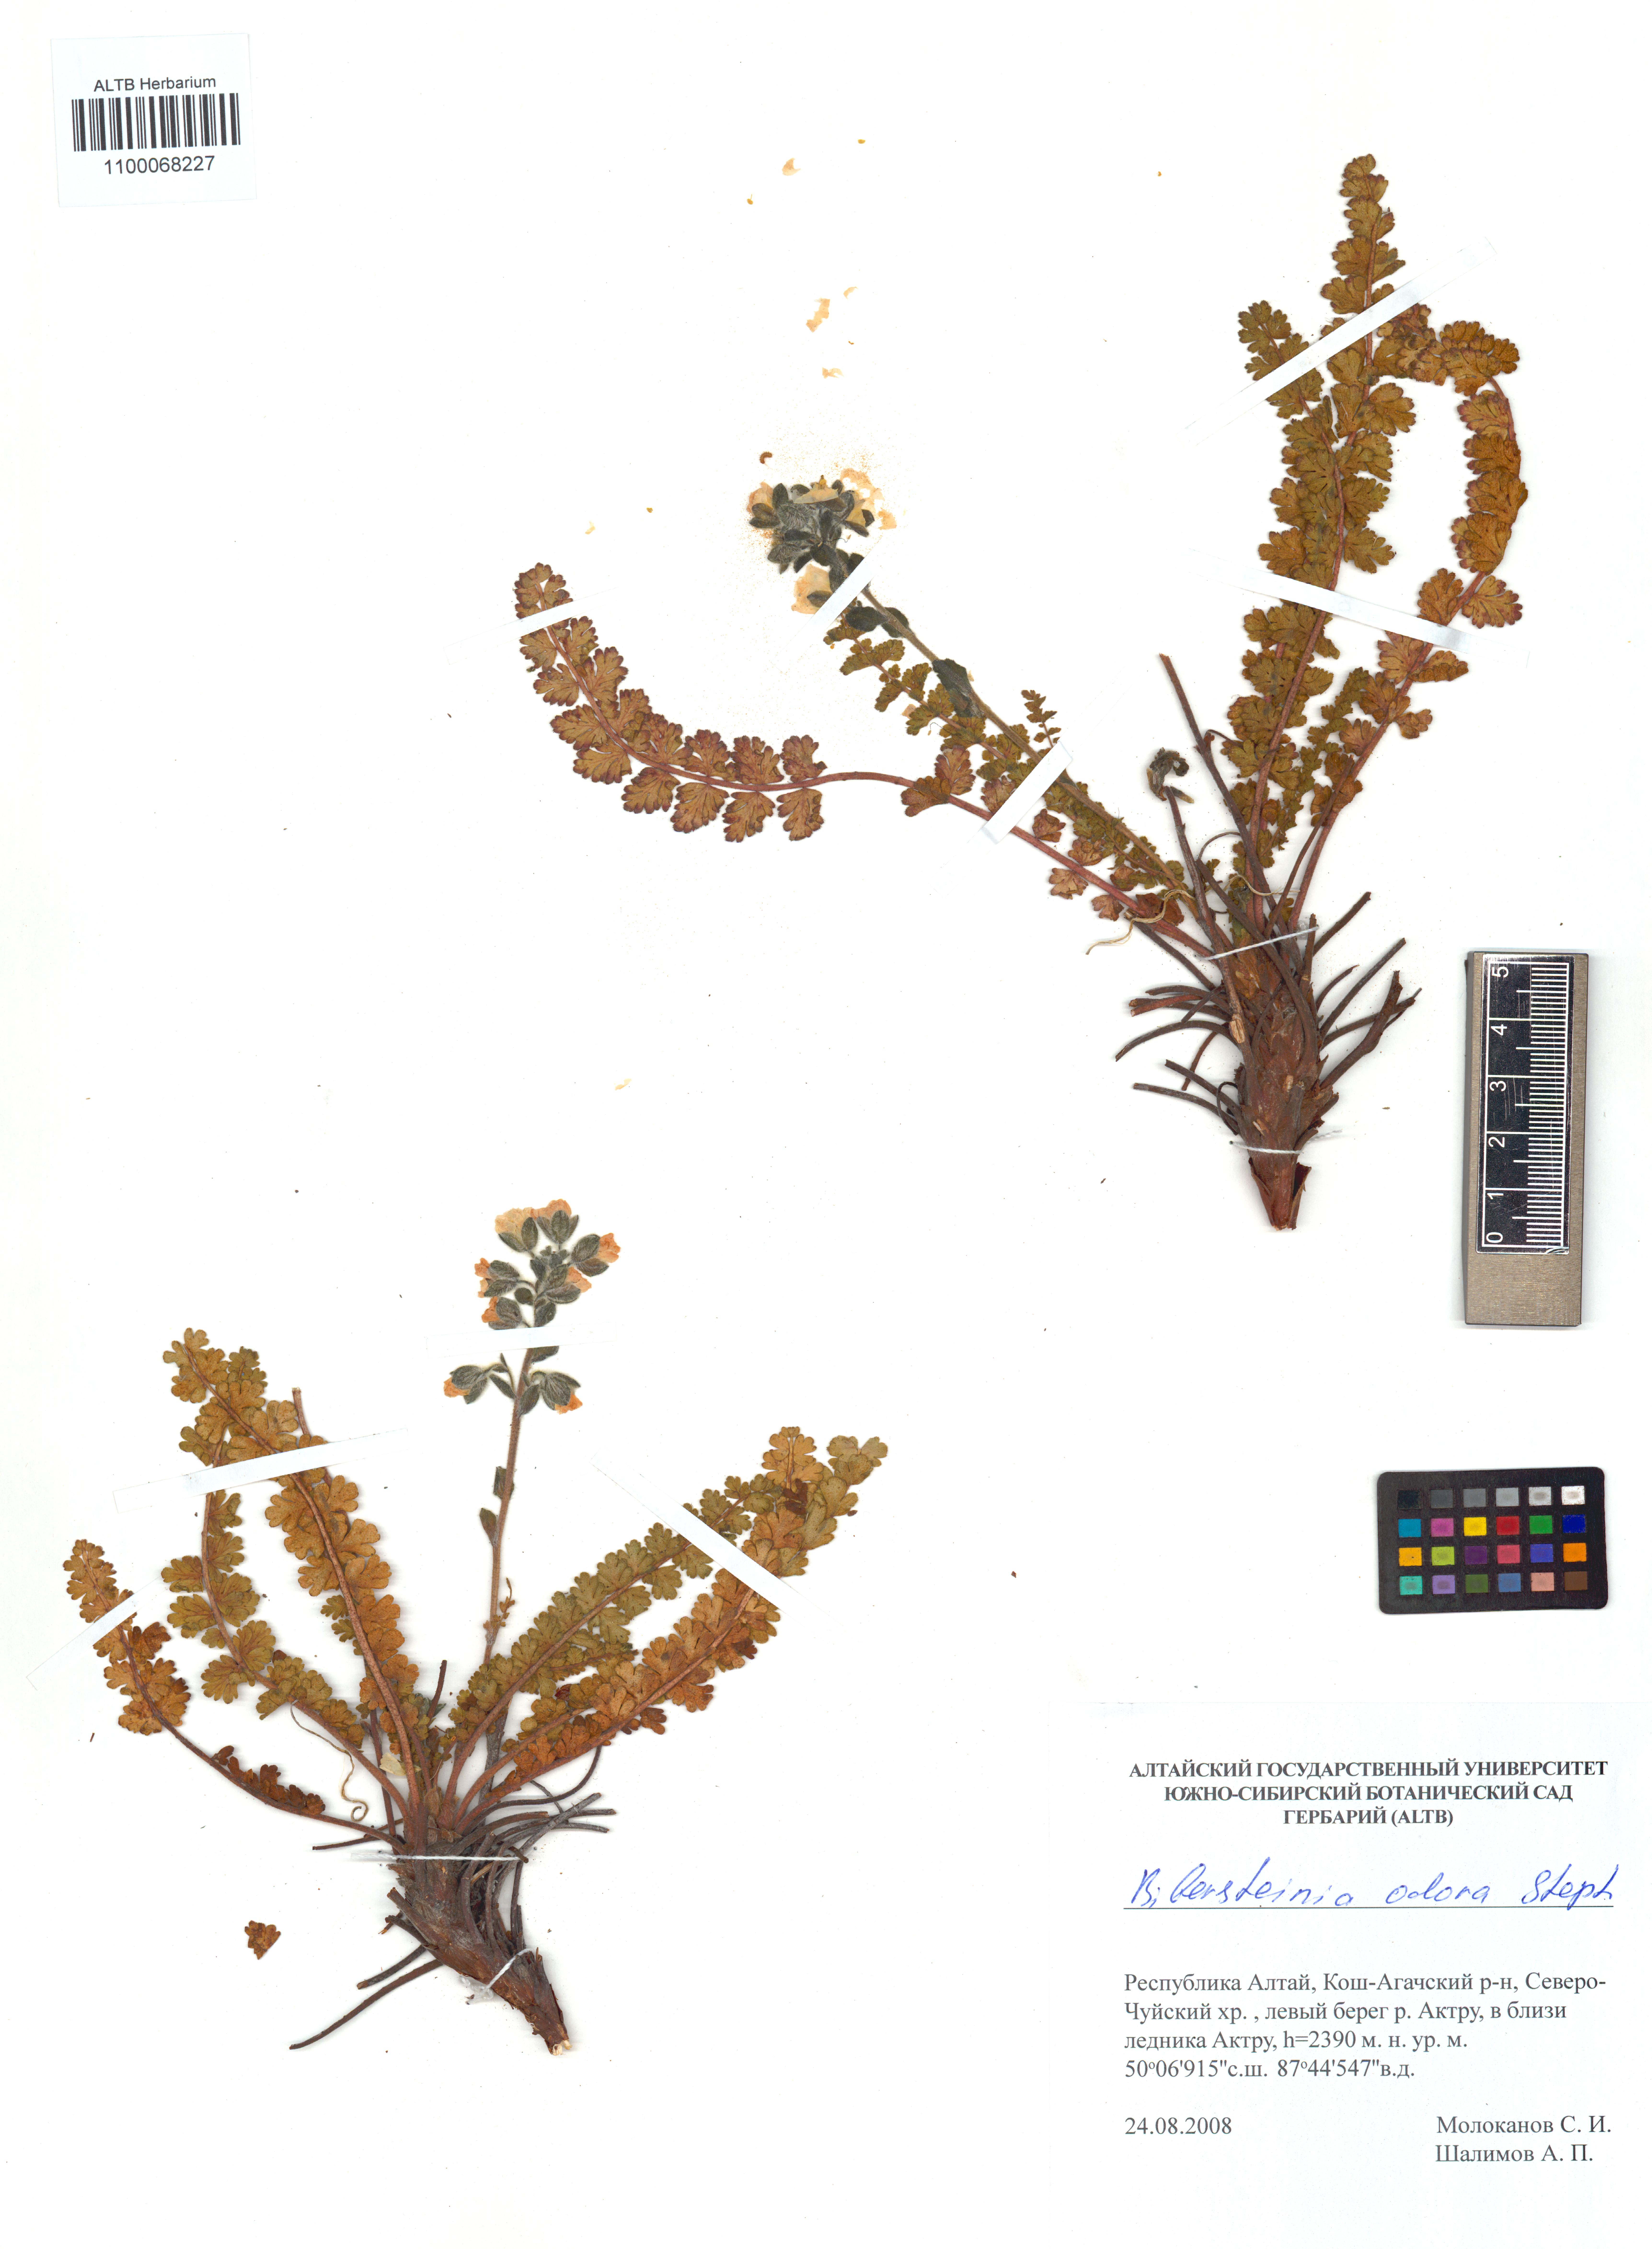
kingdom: Plantae
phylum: Tracheophyta
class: Magnoliopsida
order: Sapindales
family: Biebersteiniaceae
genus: Biebersteinia
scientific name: Biebersteinia odora
